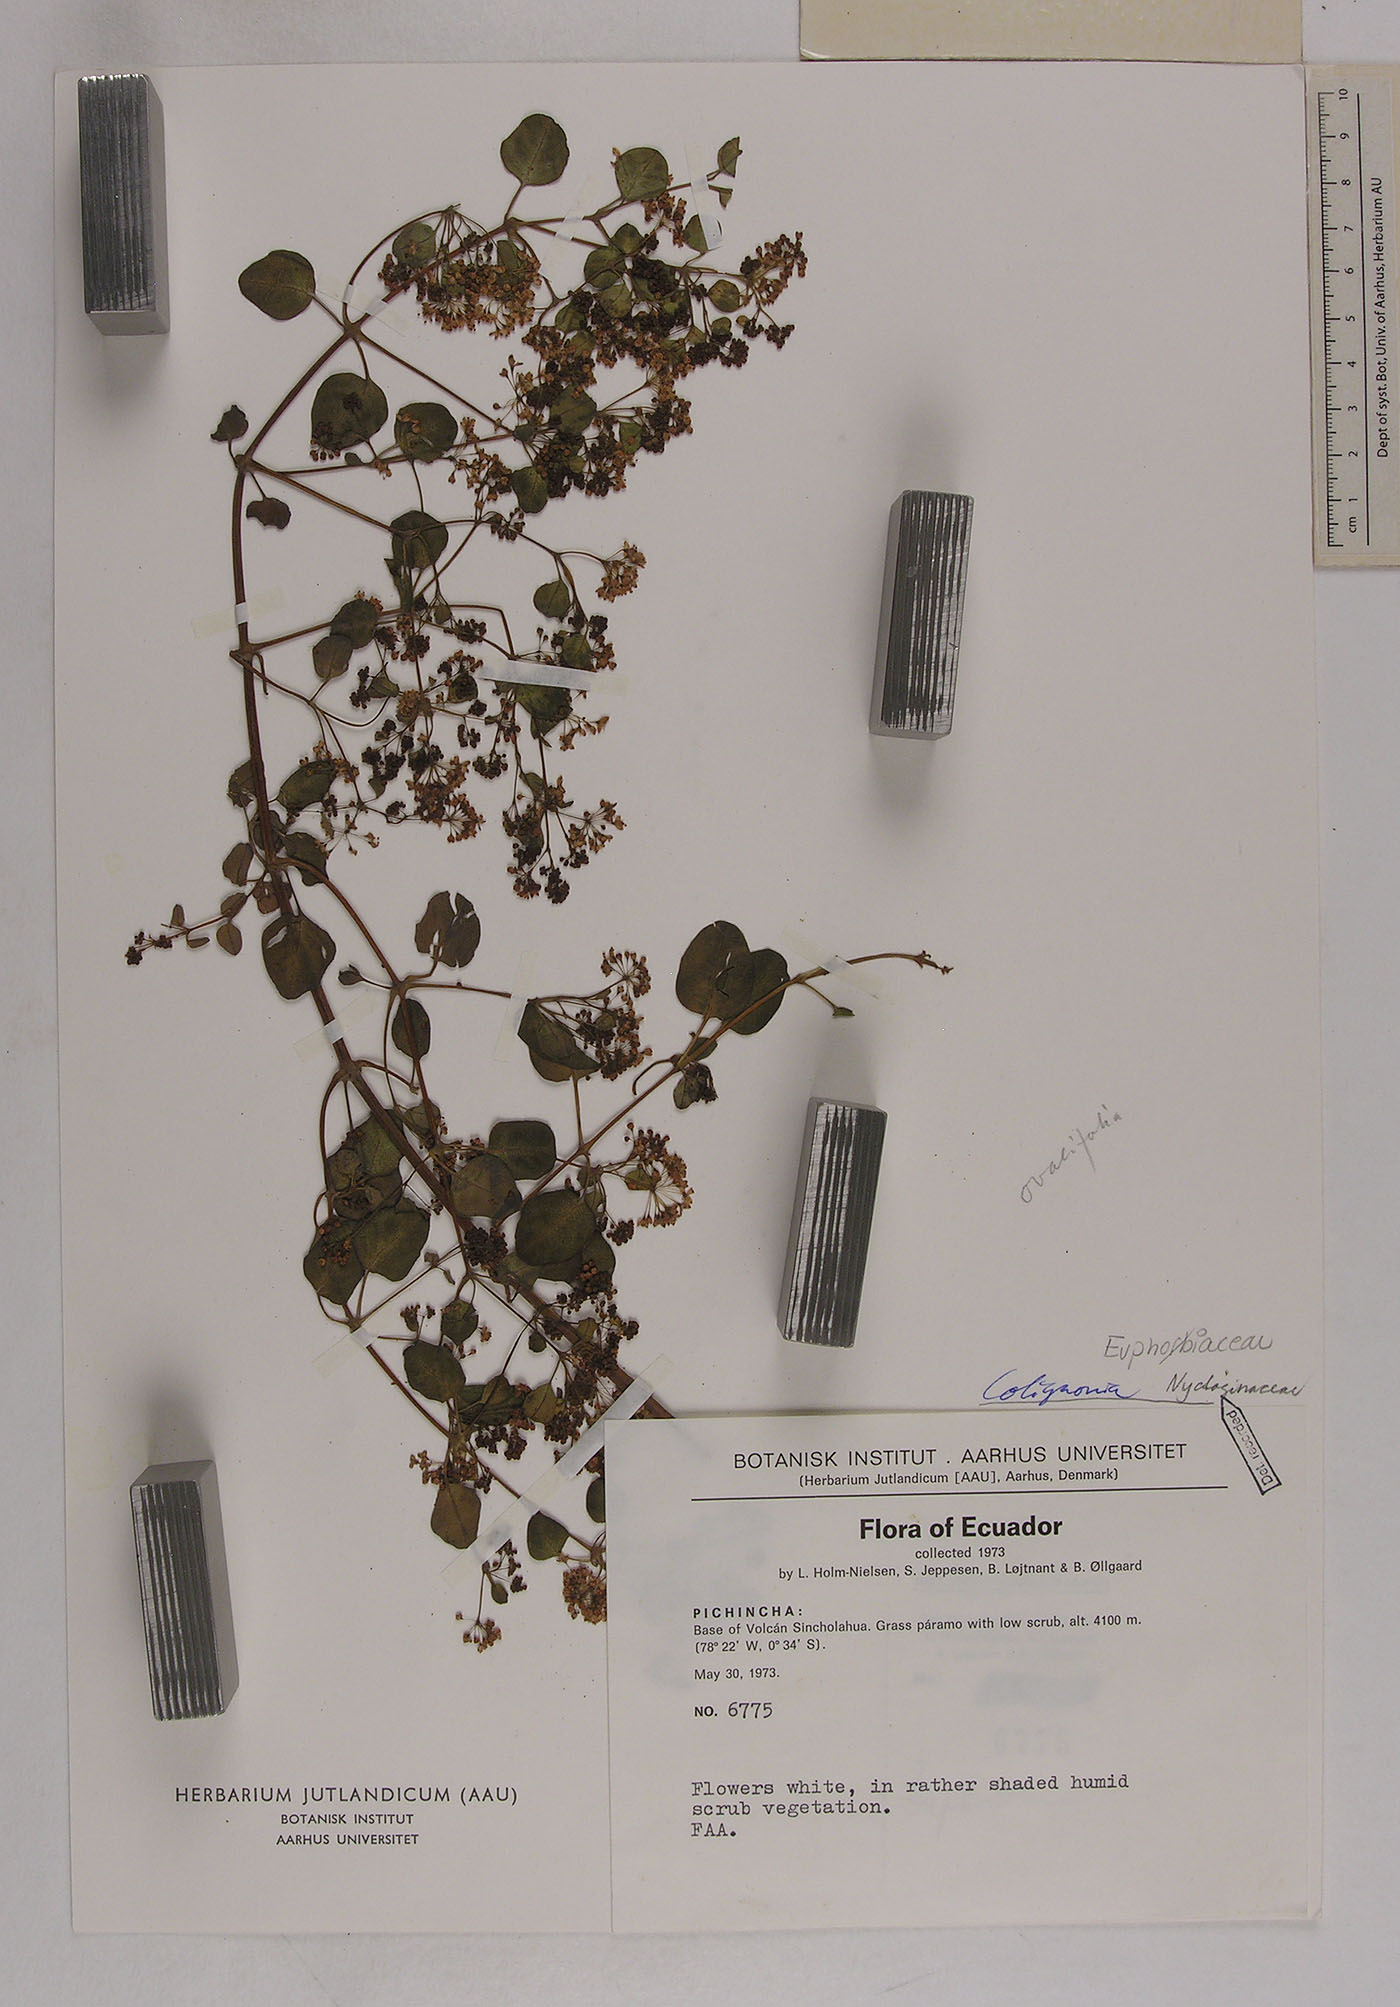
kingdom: Plantae
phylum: Tracheophyta
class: Magnoliopsida
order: Caryophyllales
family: Nyctaginaceae
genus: Colignonia
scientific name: Colignonia
